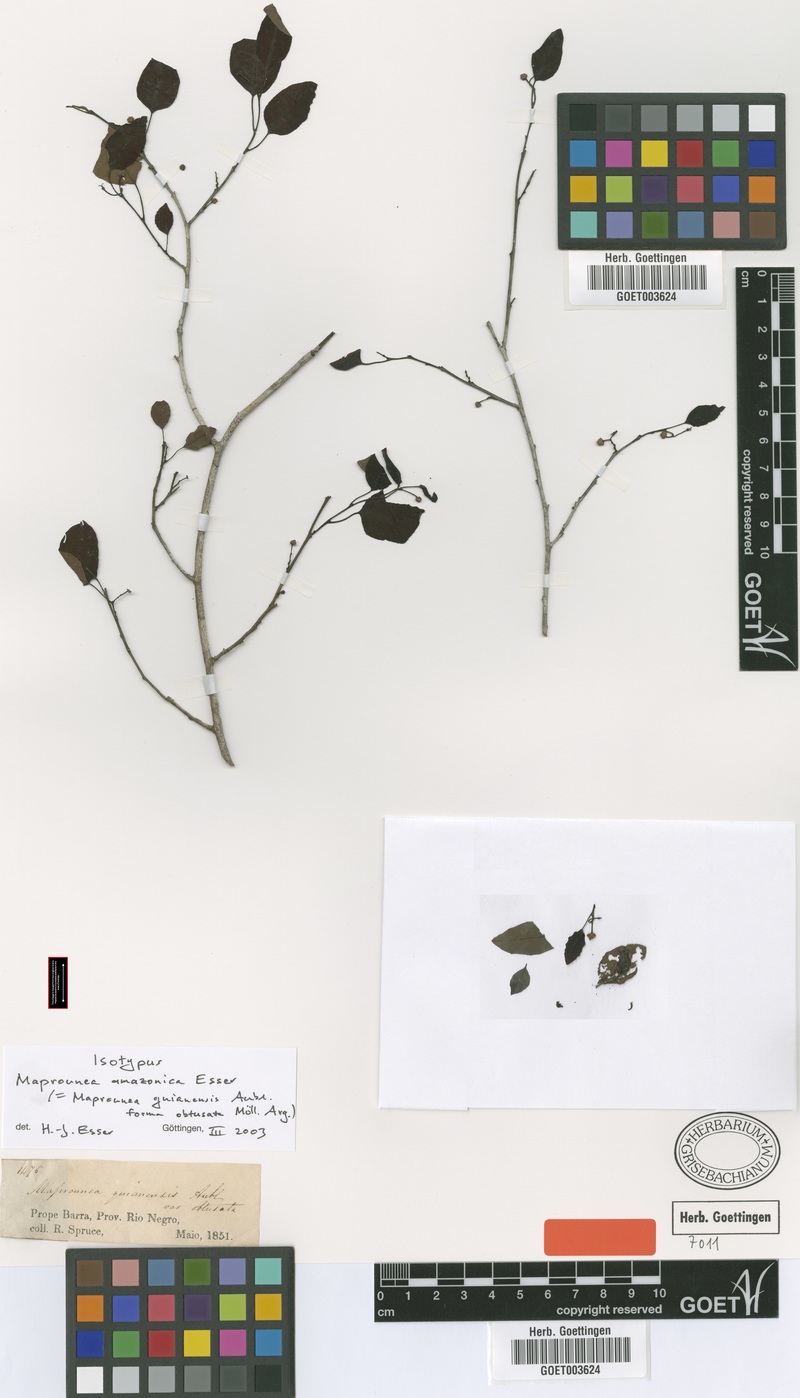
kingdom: Plantae
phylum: Tracheophyta
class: Magnoliopsida
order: Malpighiales
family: Euphorbiaceae
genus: Maprounea
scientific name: Maprounea amazonica
